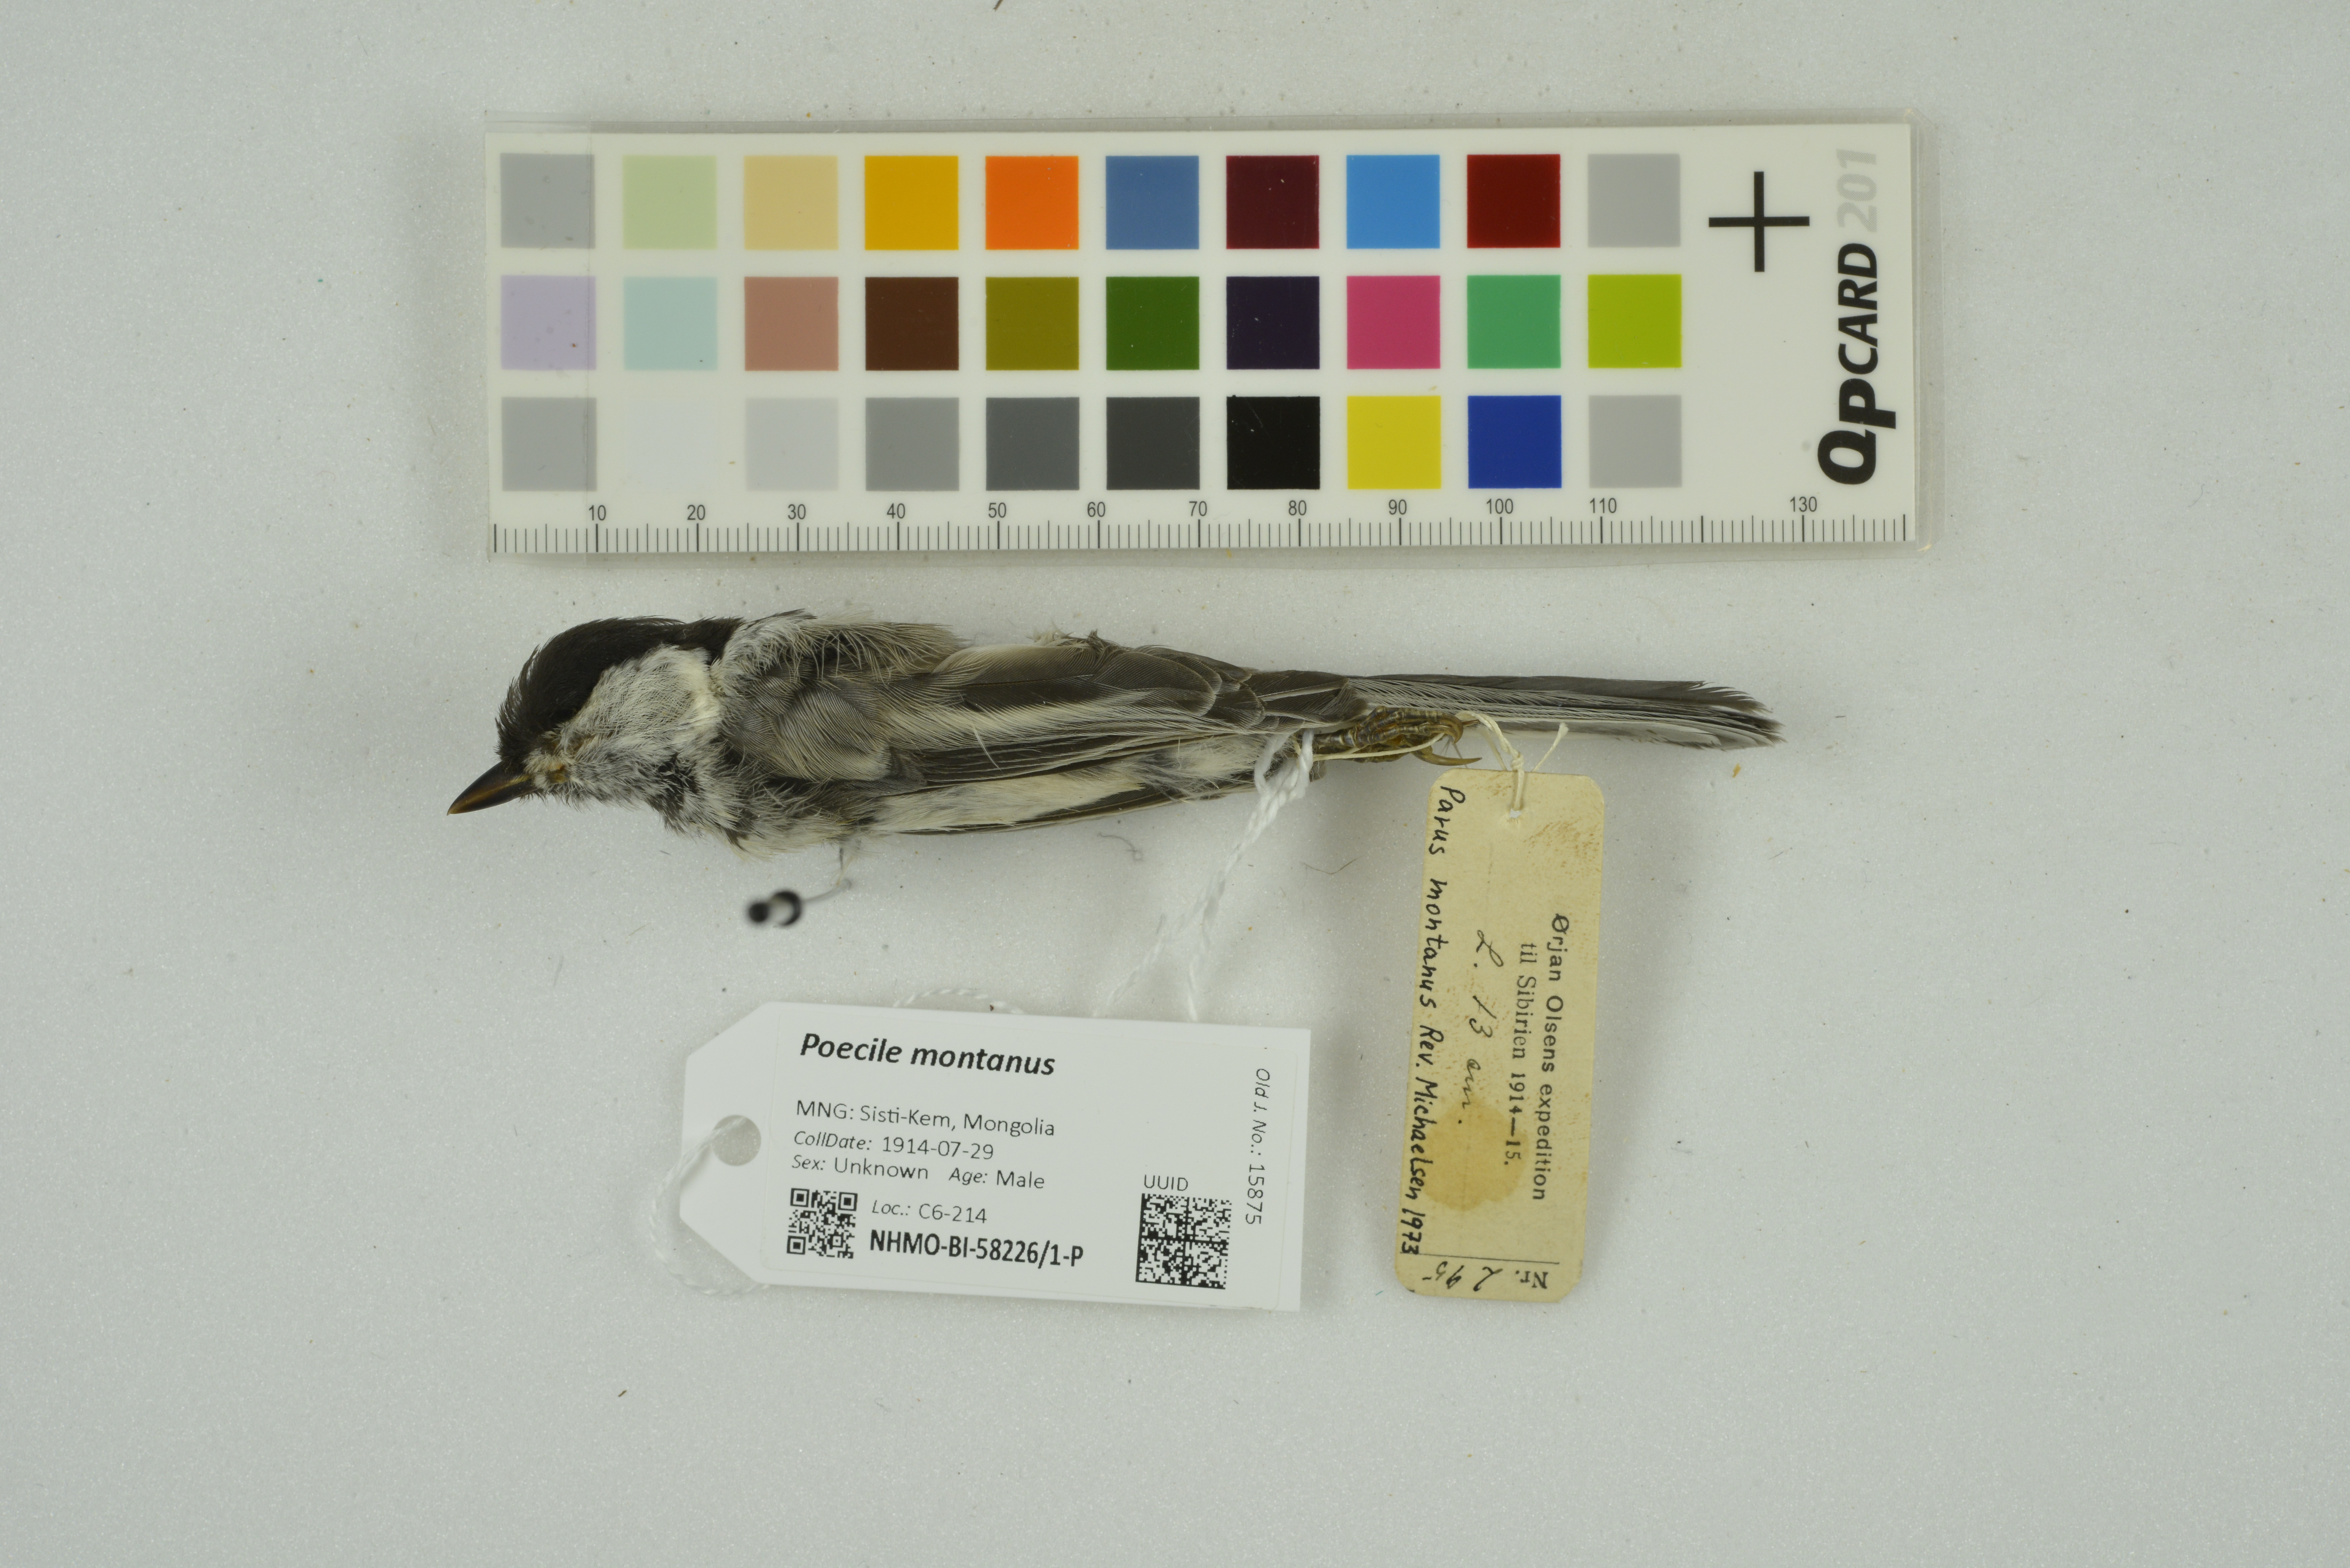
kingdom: Animalia
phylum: Chordata
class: Aves
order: Passeriformes
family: Paridae
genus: Poecile
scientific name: Poecile montanus
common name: Willow tit
